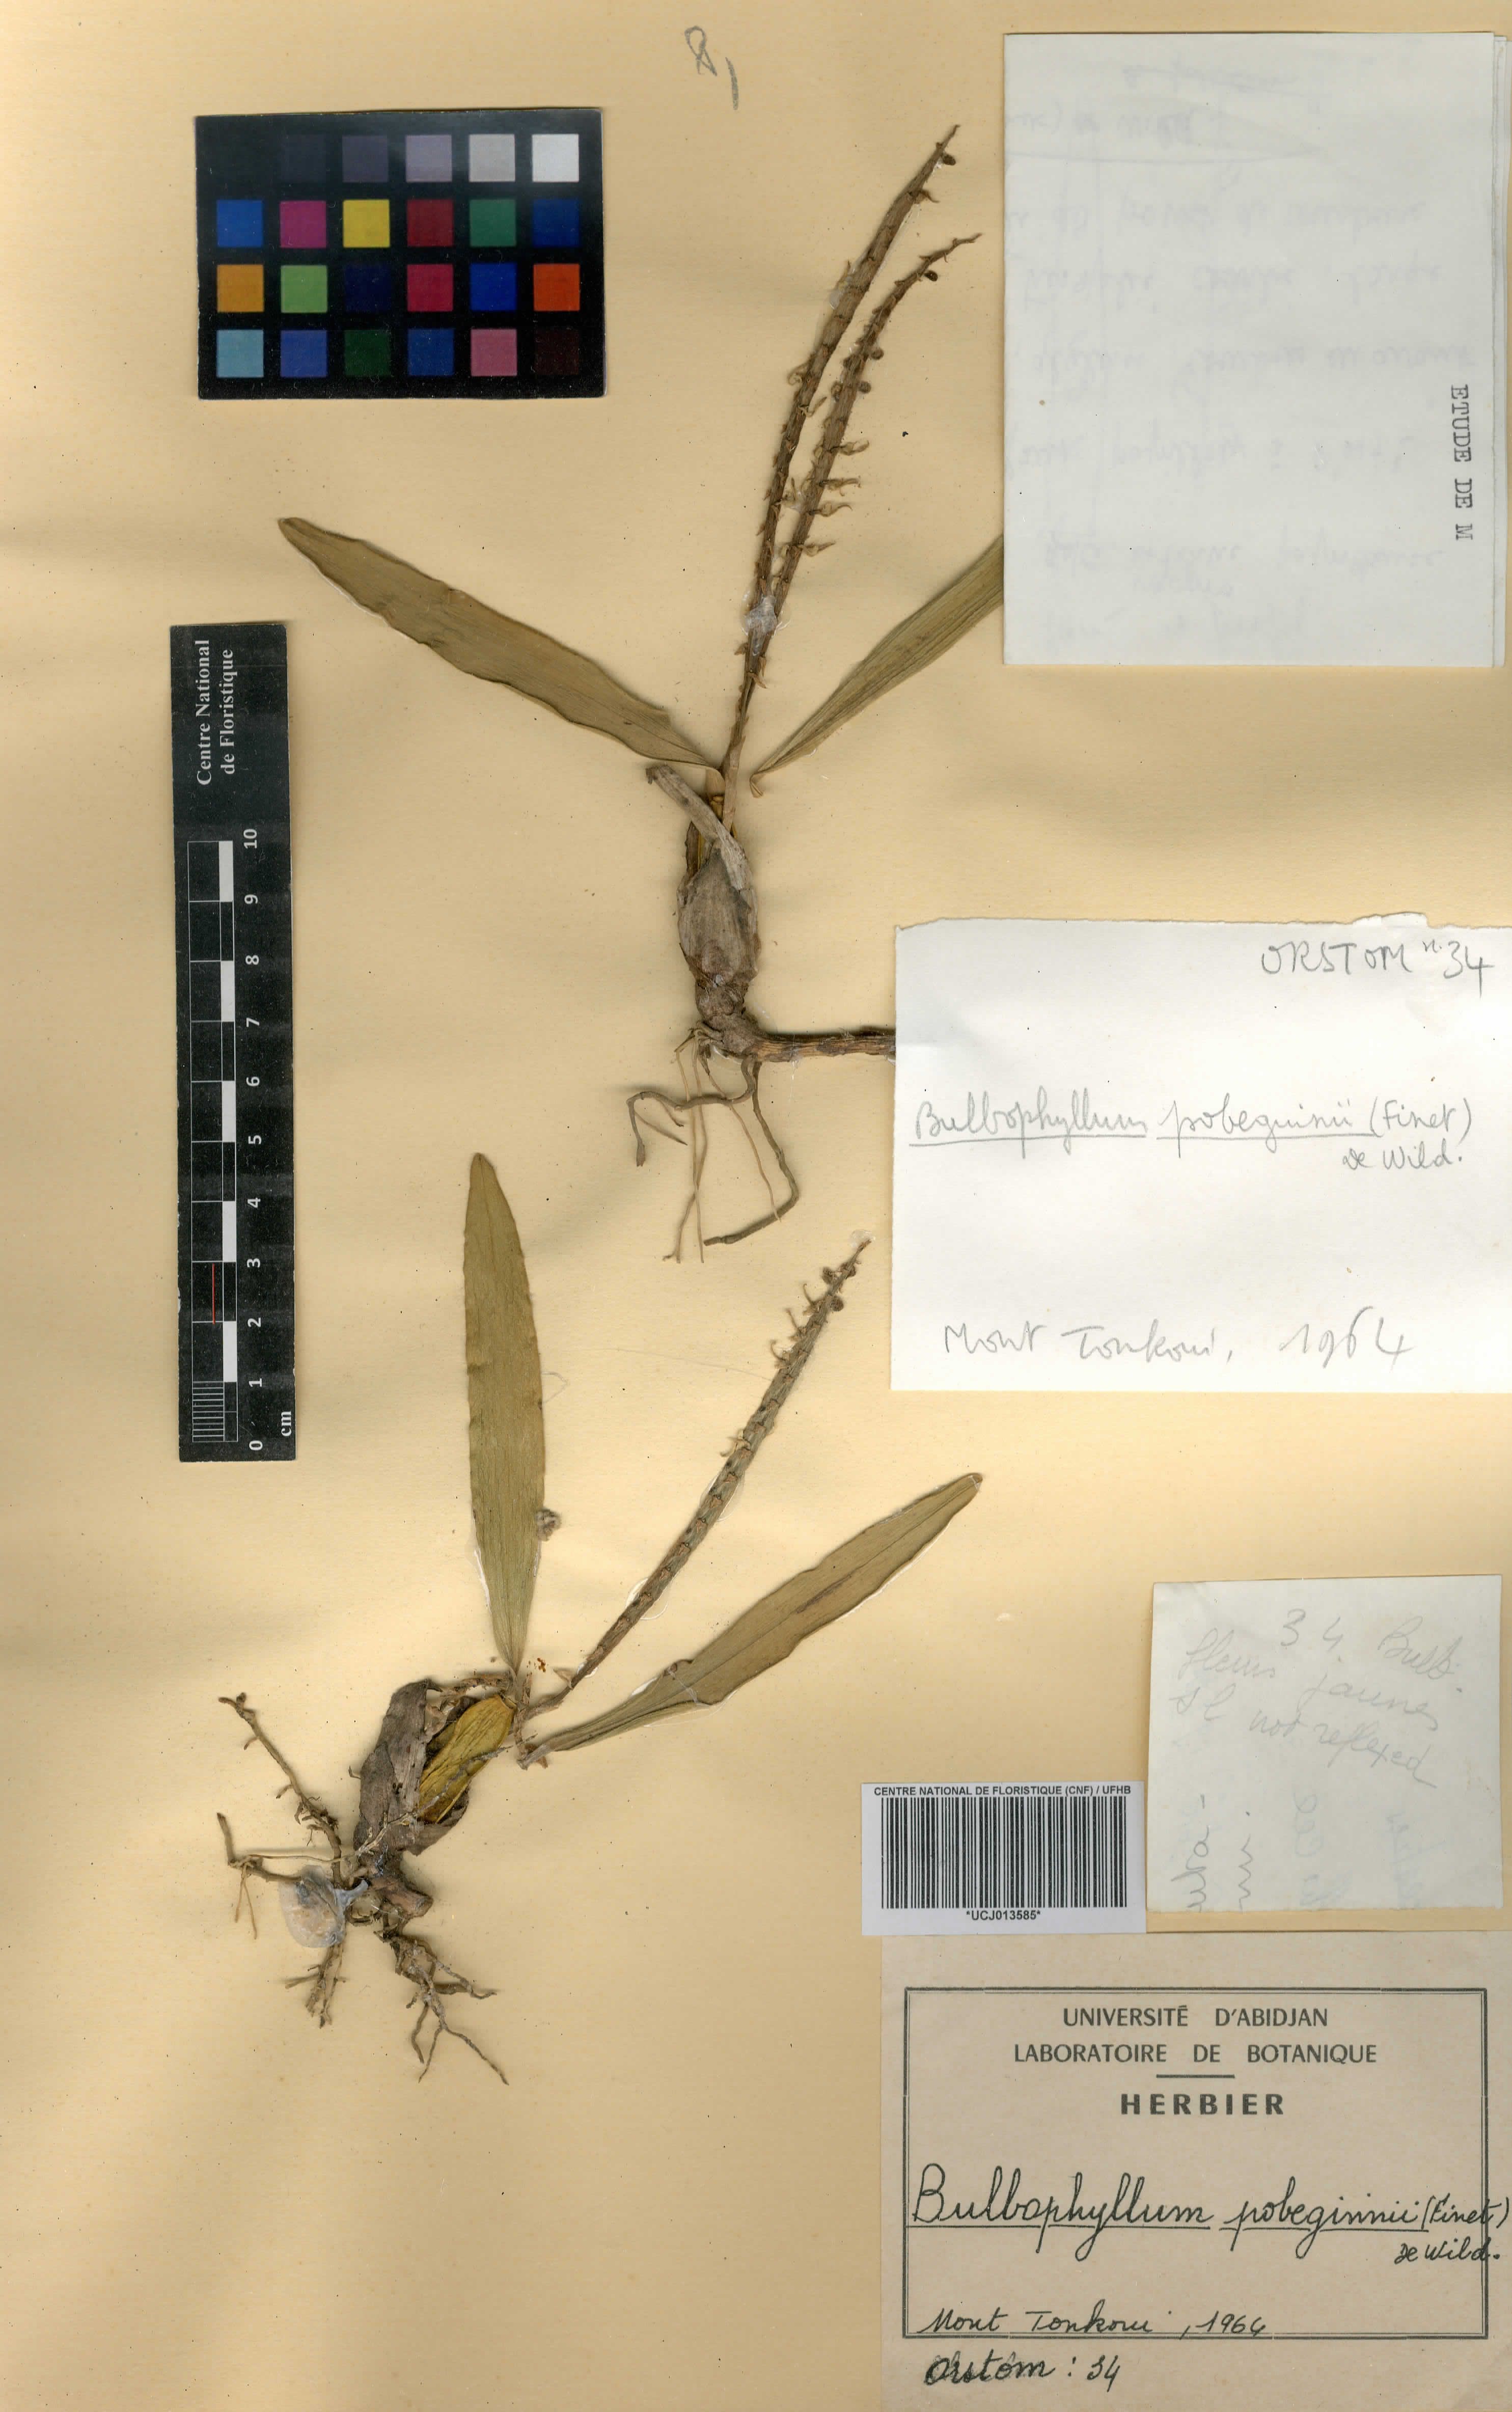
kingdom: Plantae
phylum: Tracheophyta
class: Liliopsida
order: Asparagales
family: Orchidaceae
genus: Bulbophyllum
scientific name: Bulbophyllum scaberulum
